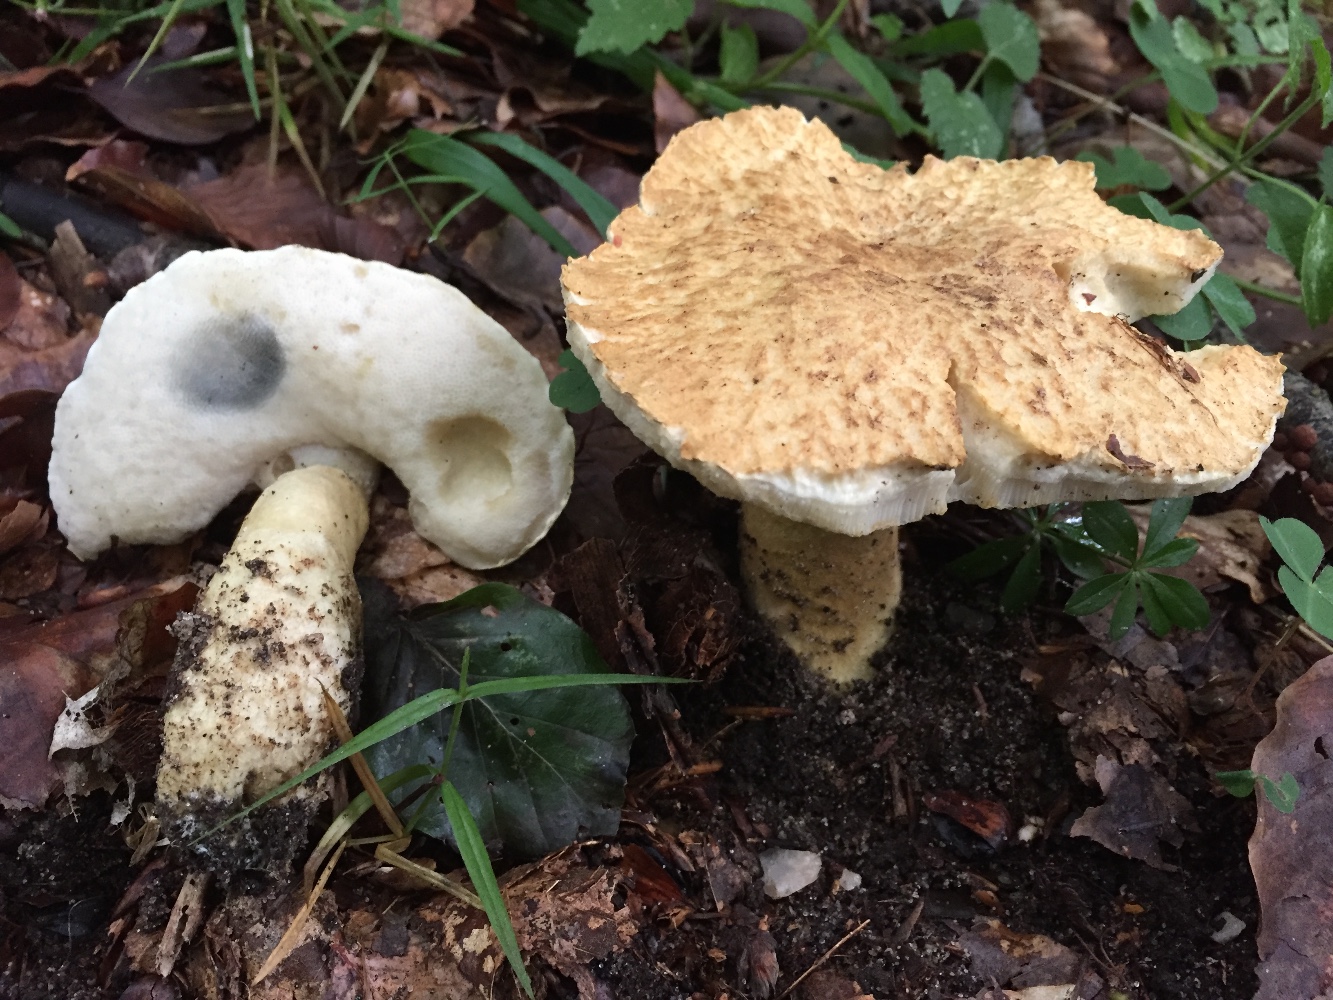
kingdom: Fungi
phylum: Basidiomycota
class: Agaricomycetes
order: Boletales
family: Gyroporaceae
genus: Gyroporus
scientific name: Gyroporus cyanescens
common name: blånende kammerrørhat
